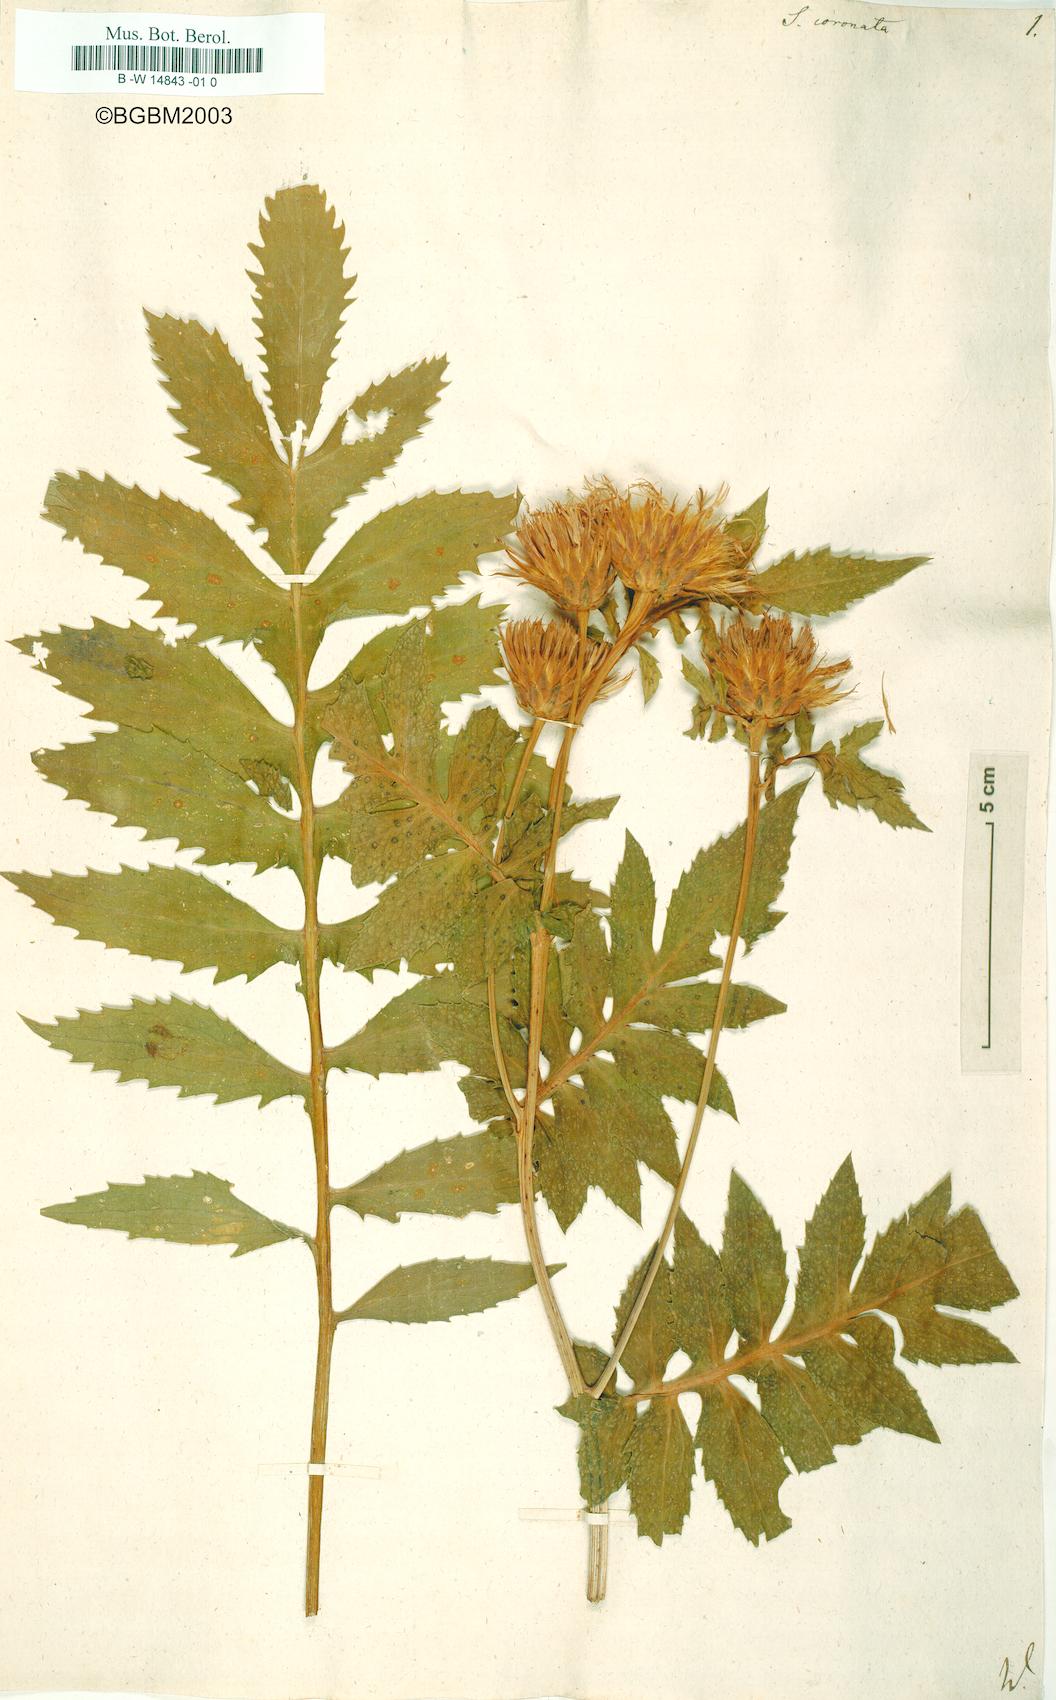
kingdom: Plantae
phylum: Tracheophyta
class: Magnoliopsida
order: Asterales
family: Asteraceae
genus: Serratula
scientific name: Serratula coronata
